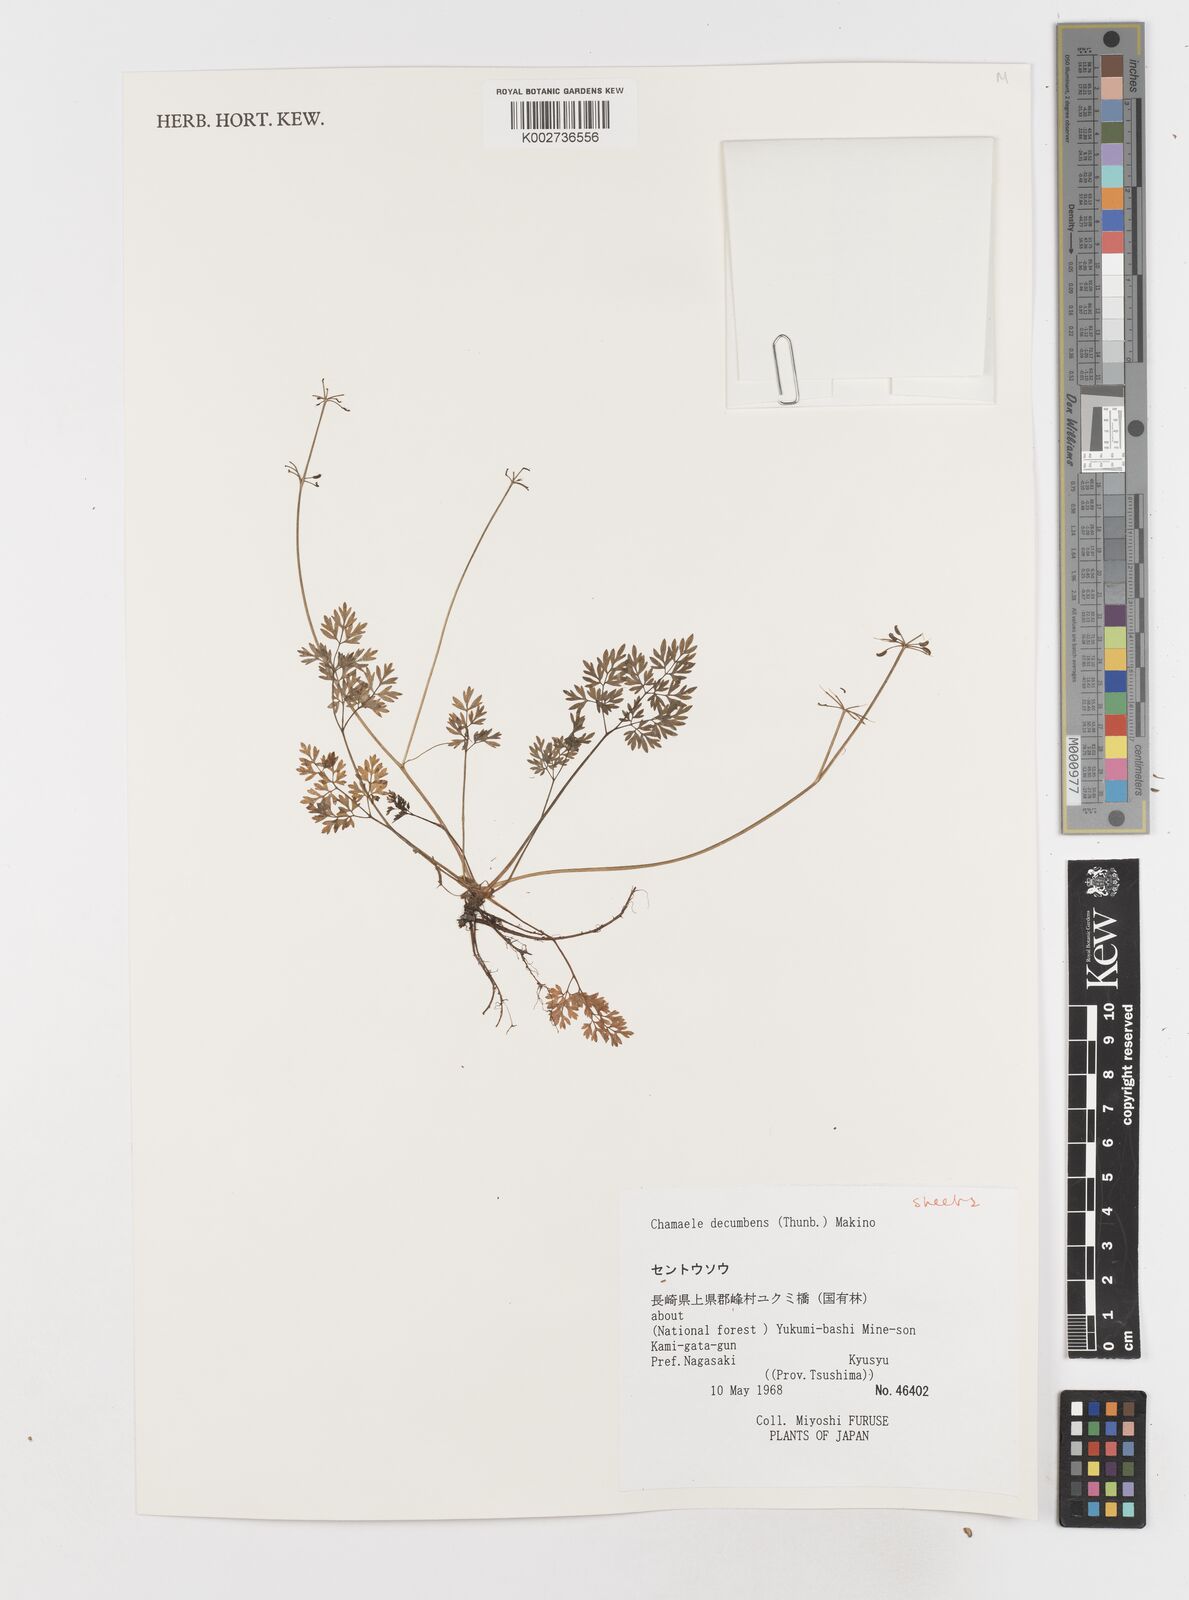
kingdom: Plantae
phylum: Tracheophyta
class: Magnoliopsida
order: Apiales
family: Apiaceae
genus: Aegopodium
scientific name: Aegopodium decumbens
